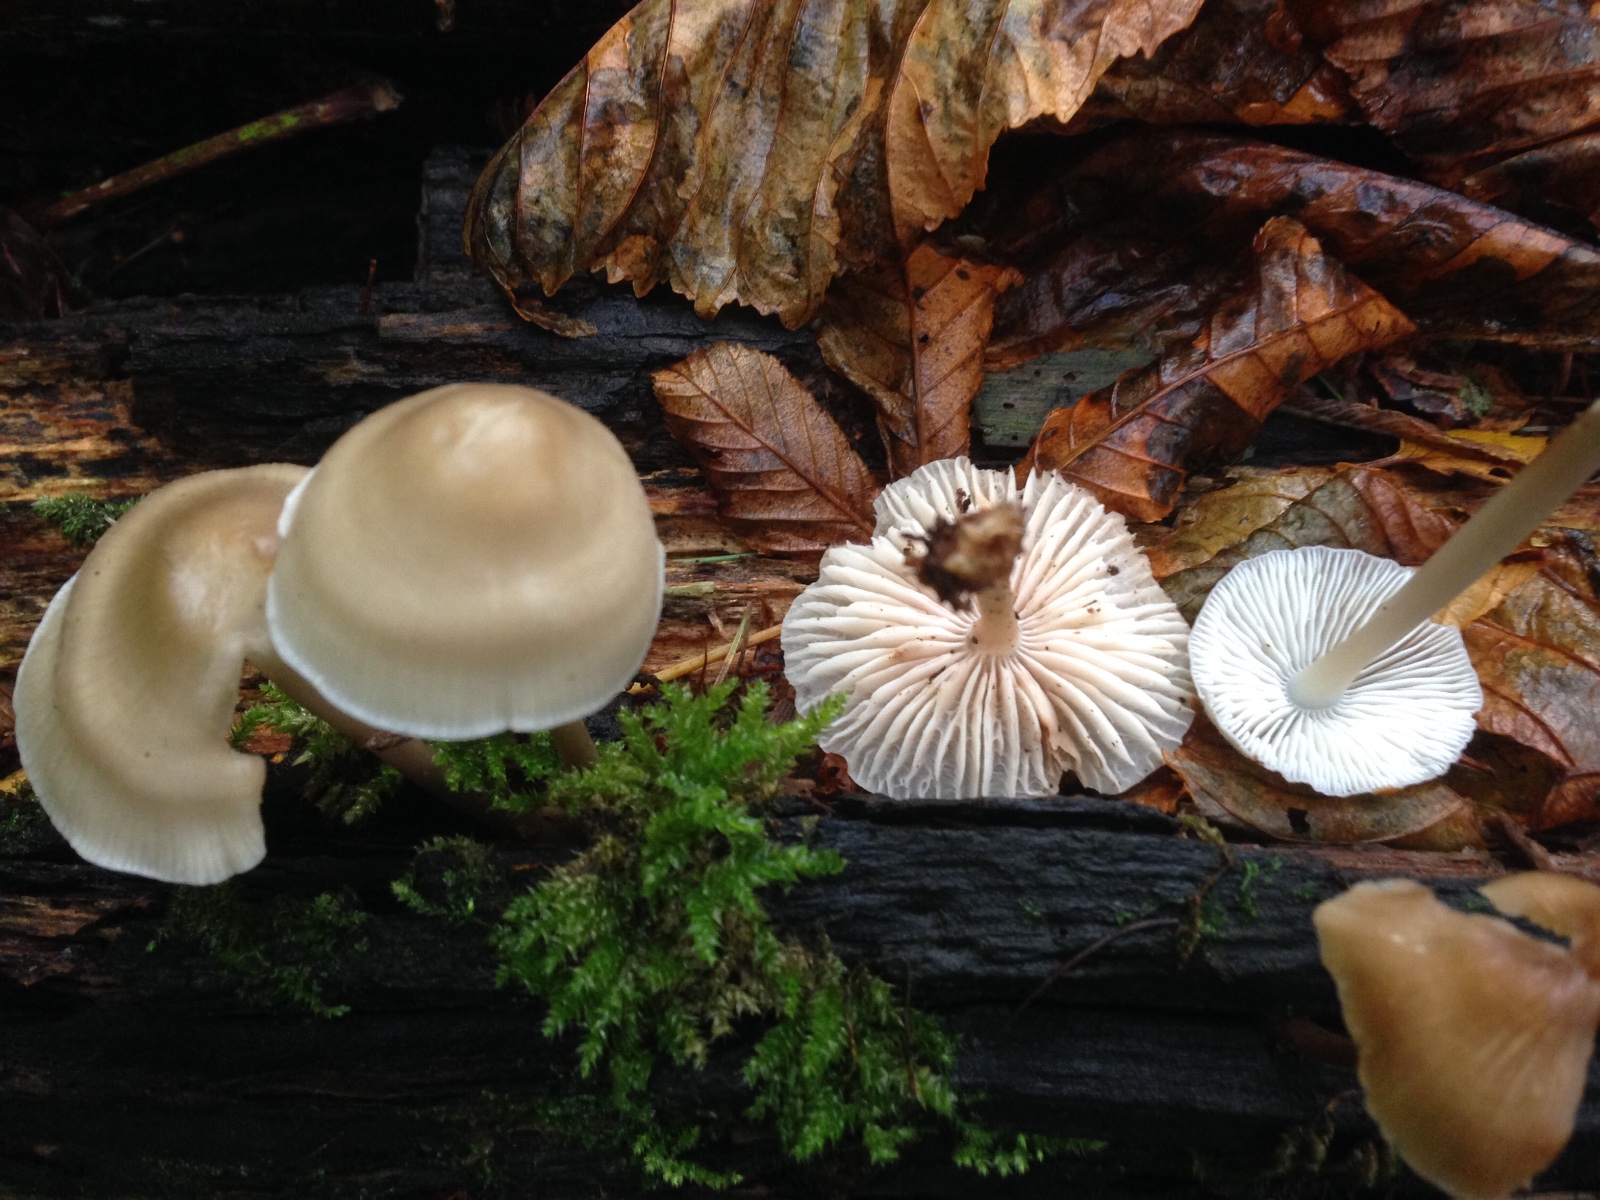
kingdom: Fungi
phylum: Basidiomycota
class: Agaricomycetes
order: Agaricales
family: Mycenaceae
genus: Mycena
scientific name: Mycena galericulata
